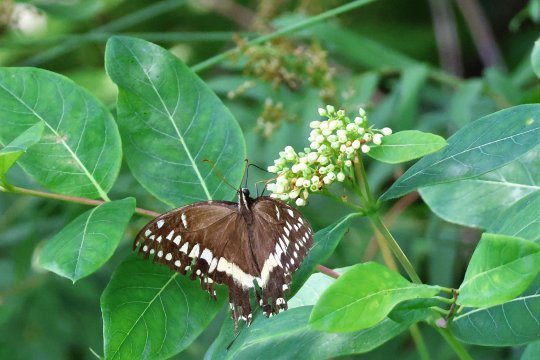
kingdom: Animalia
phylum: Arthropoda
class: Insecta
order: Lepidoptera
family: Papilionidae
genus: Pterourus
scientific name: Pterourus palamedes
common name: Palamedes Swallowtail
